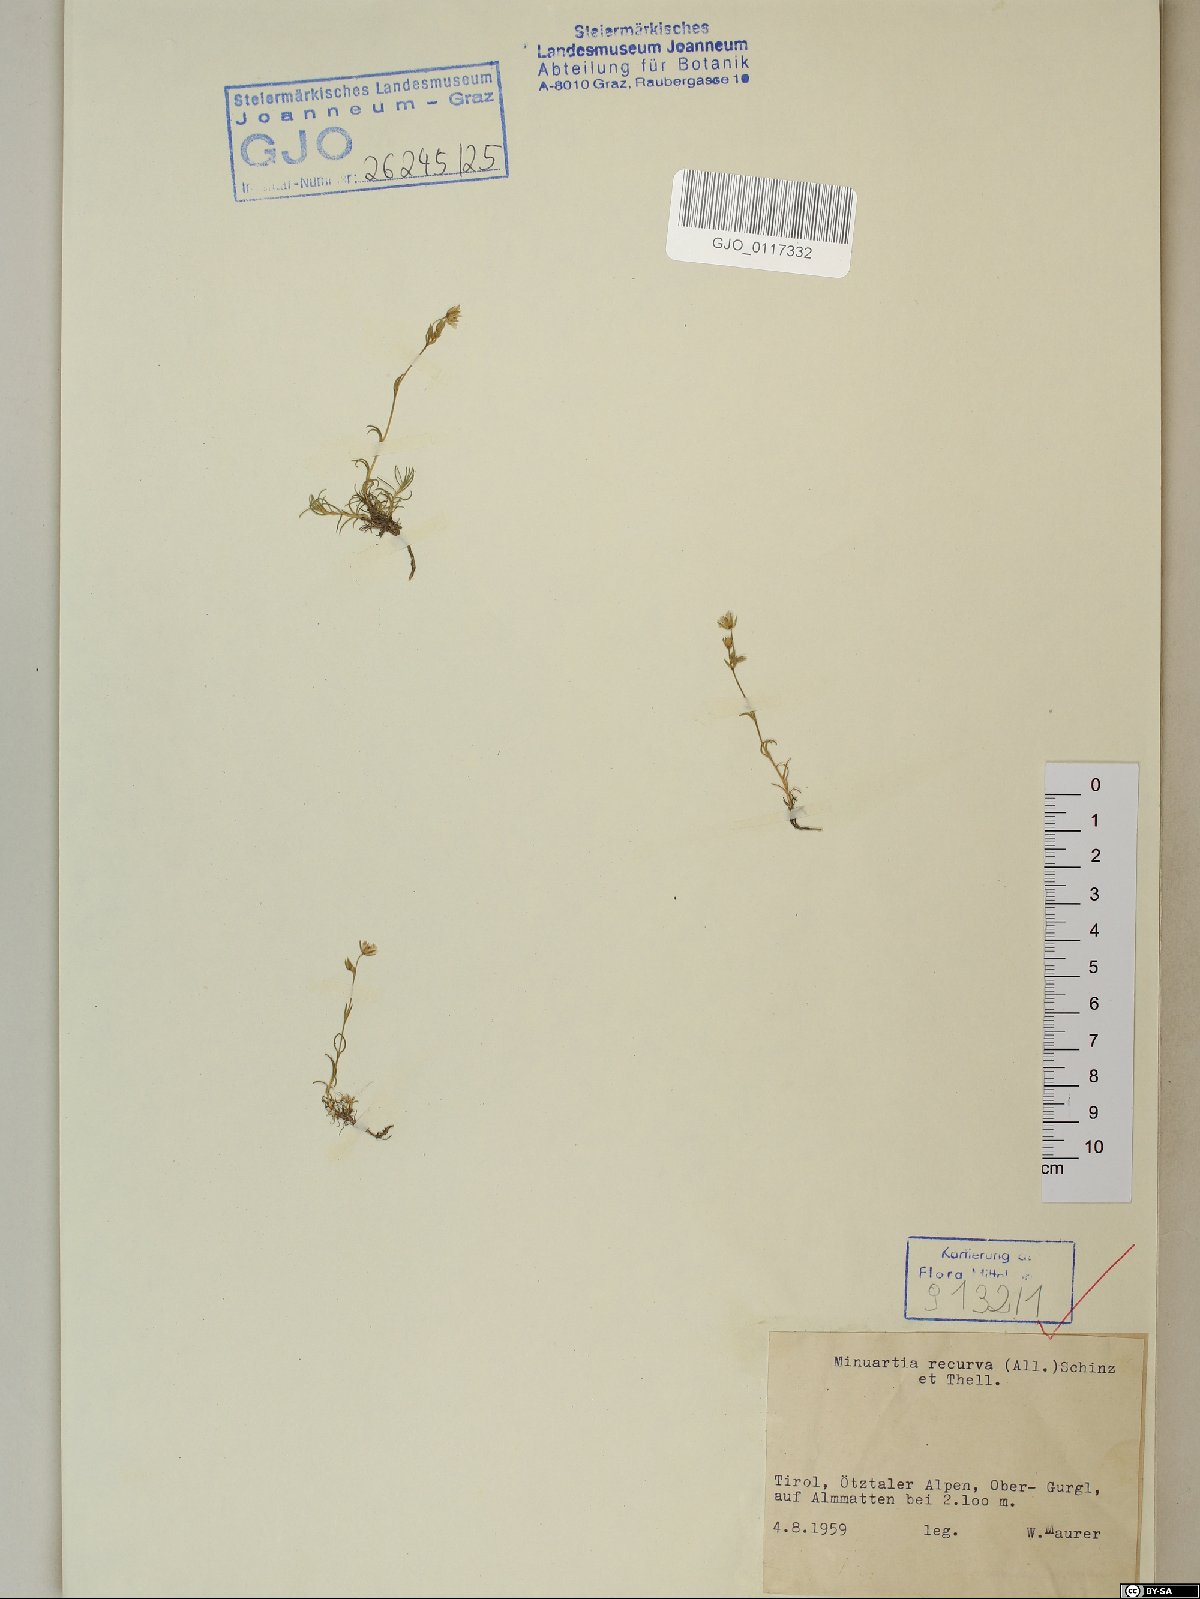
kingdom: Plantae
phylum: Tracheophyta
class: Magnoliopsida
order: Caryophyllales
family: Caryophyllaceae
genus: Minuartia
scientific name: Minuartia recurva
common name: Recurved sandwort
